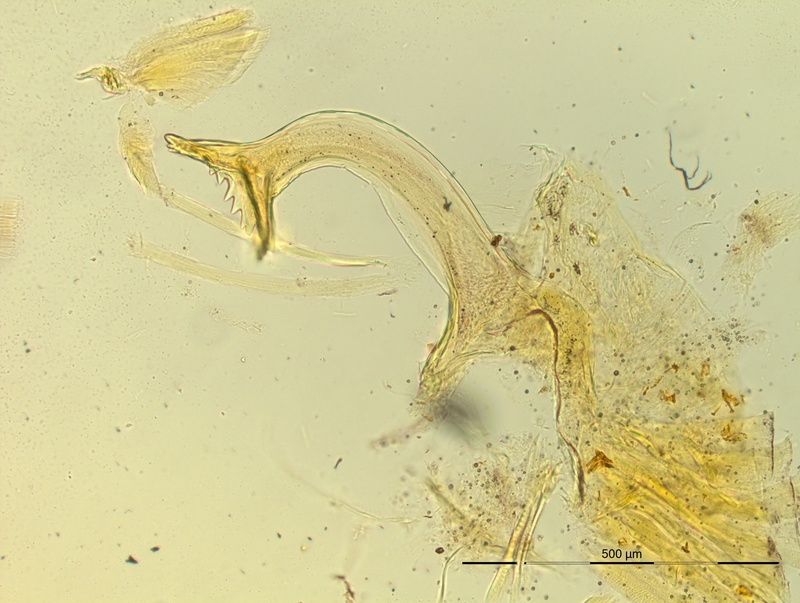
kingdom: Animalia
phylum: Arthropoda
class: Diplopoda
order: Chordeumatida
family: Craspedosomatidae
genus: Pyrgocyphosoma
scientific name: Pyrgocyphosoma titianum
